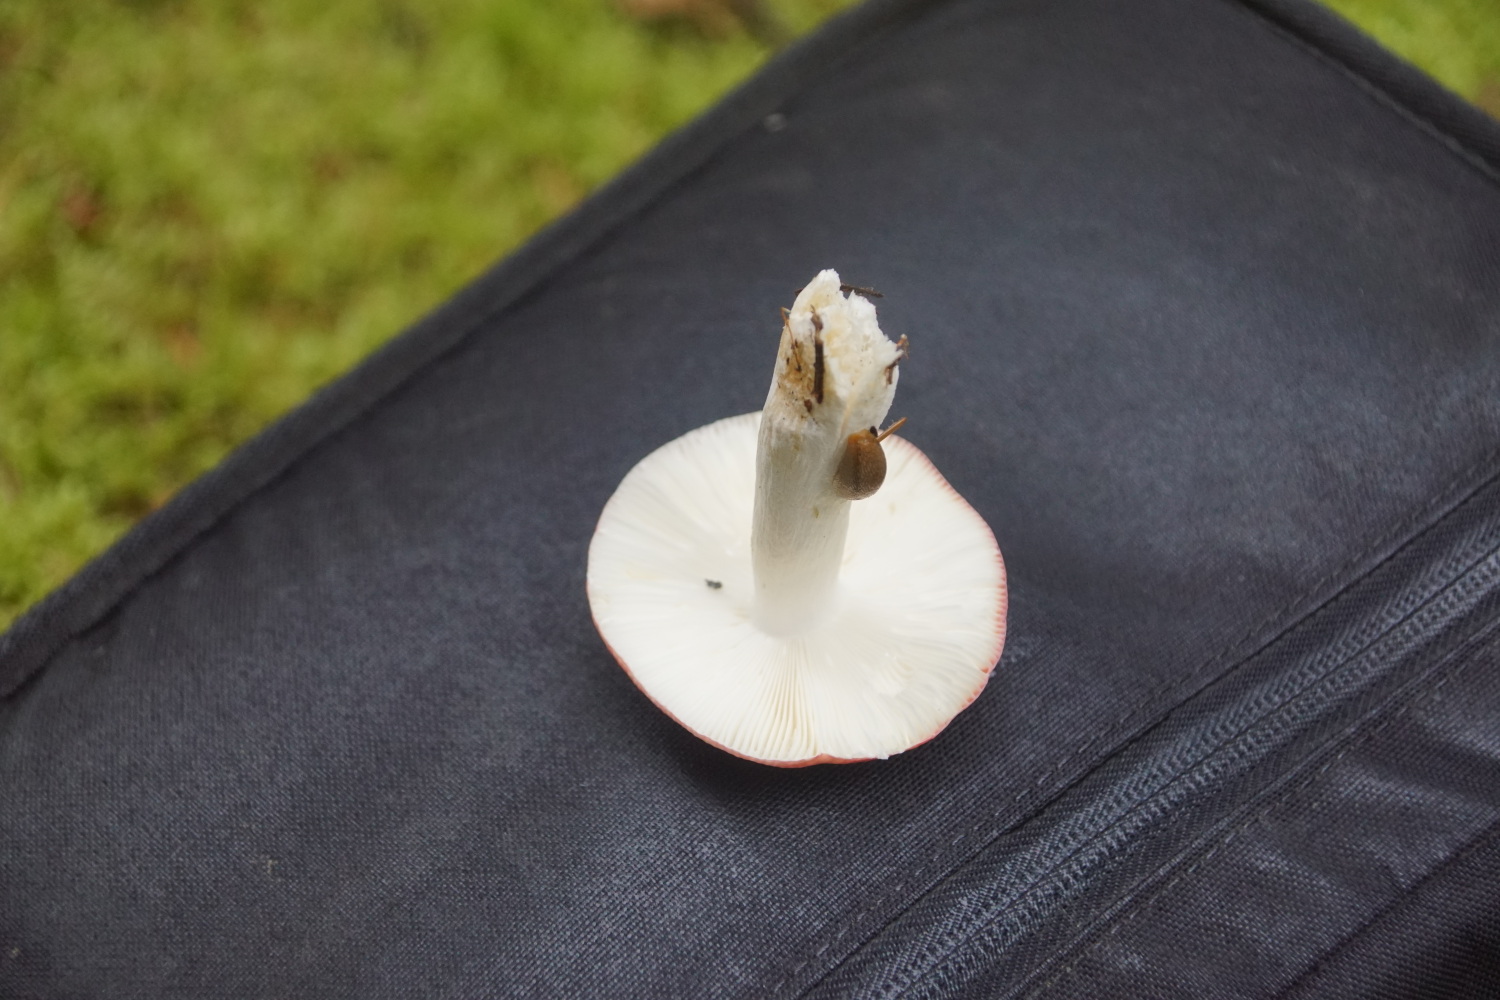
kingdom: Fungi
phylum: Basidiomycota
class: Agaricomycetes
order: Russulales
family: Russulaceae
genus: Russula
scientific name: Russula emetica
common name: stor gift-skørhat
